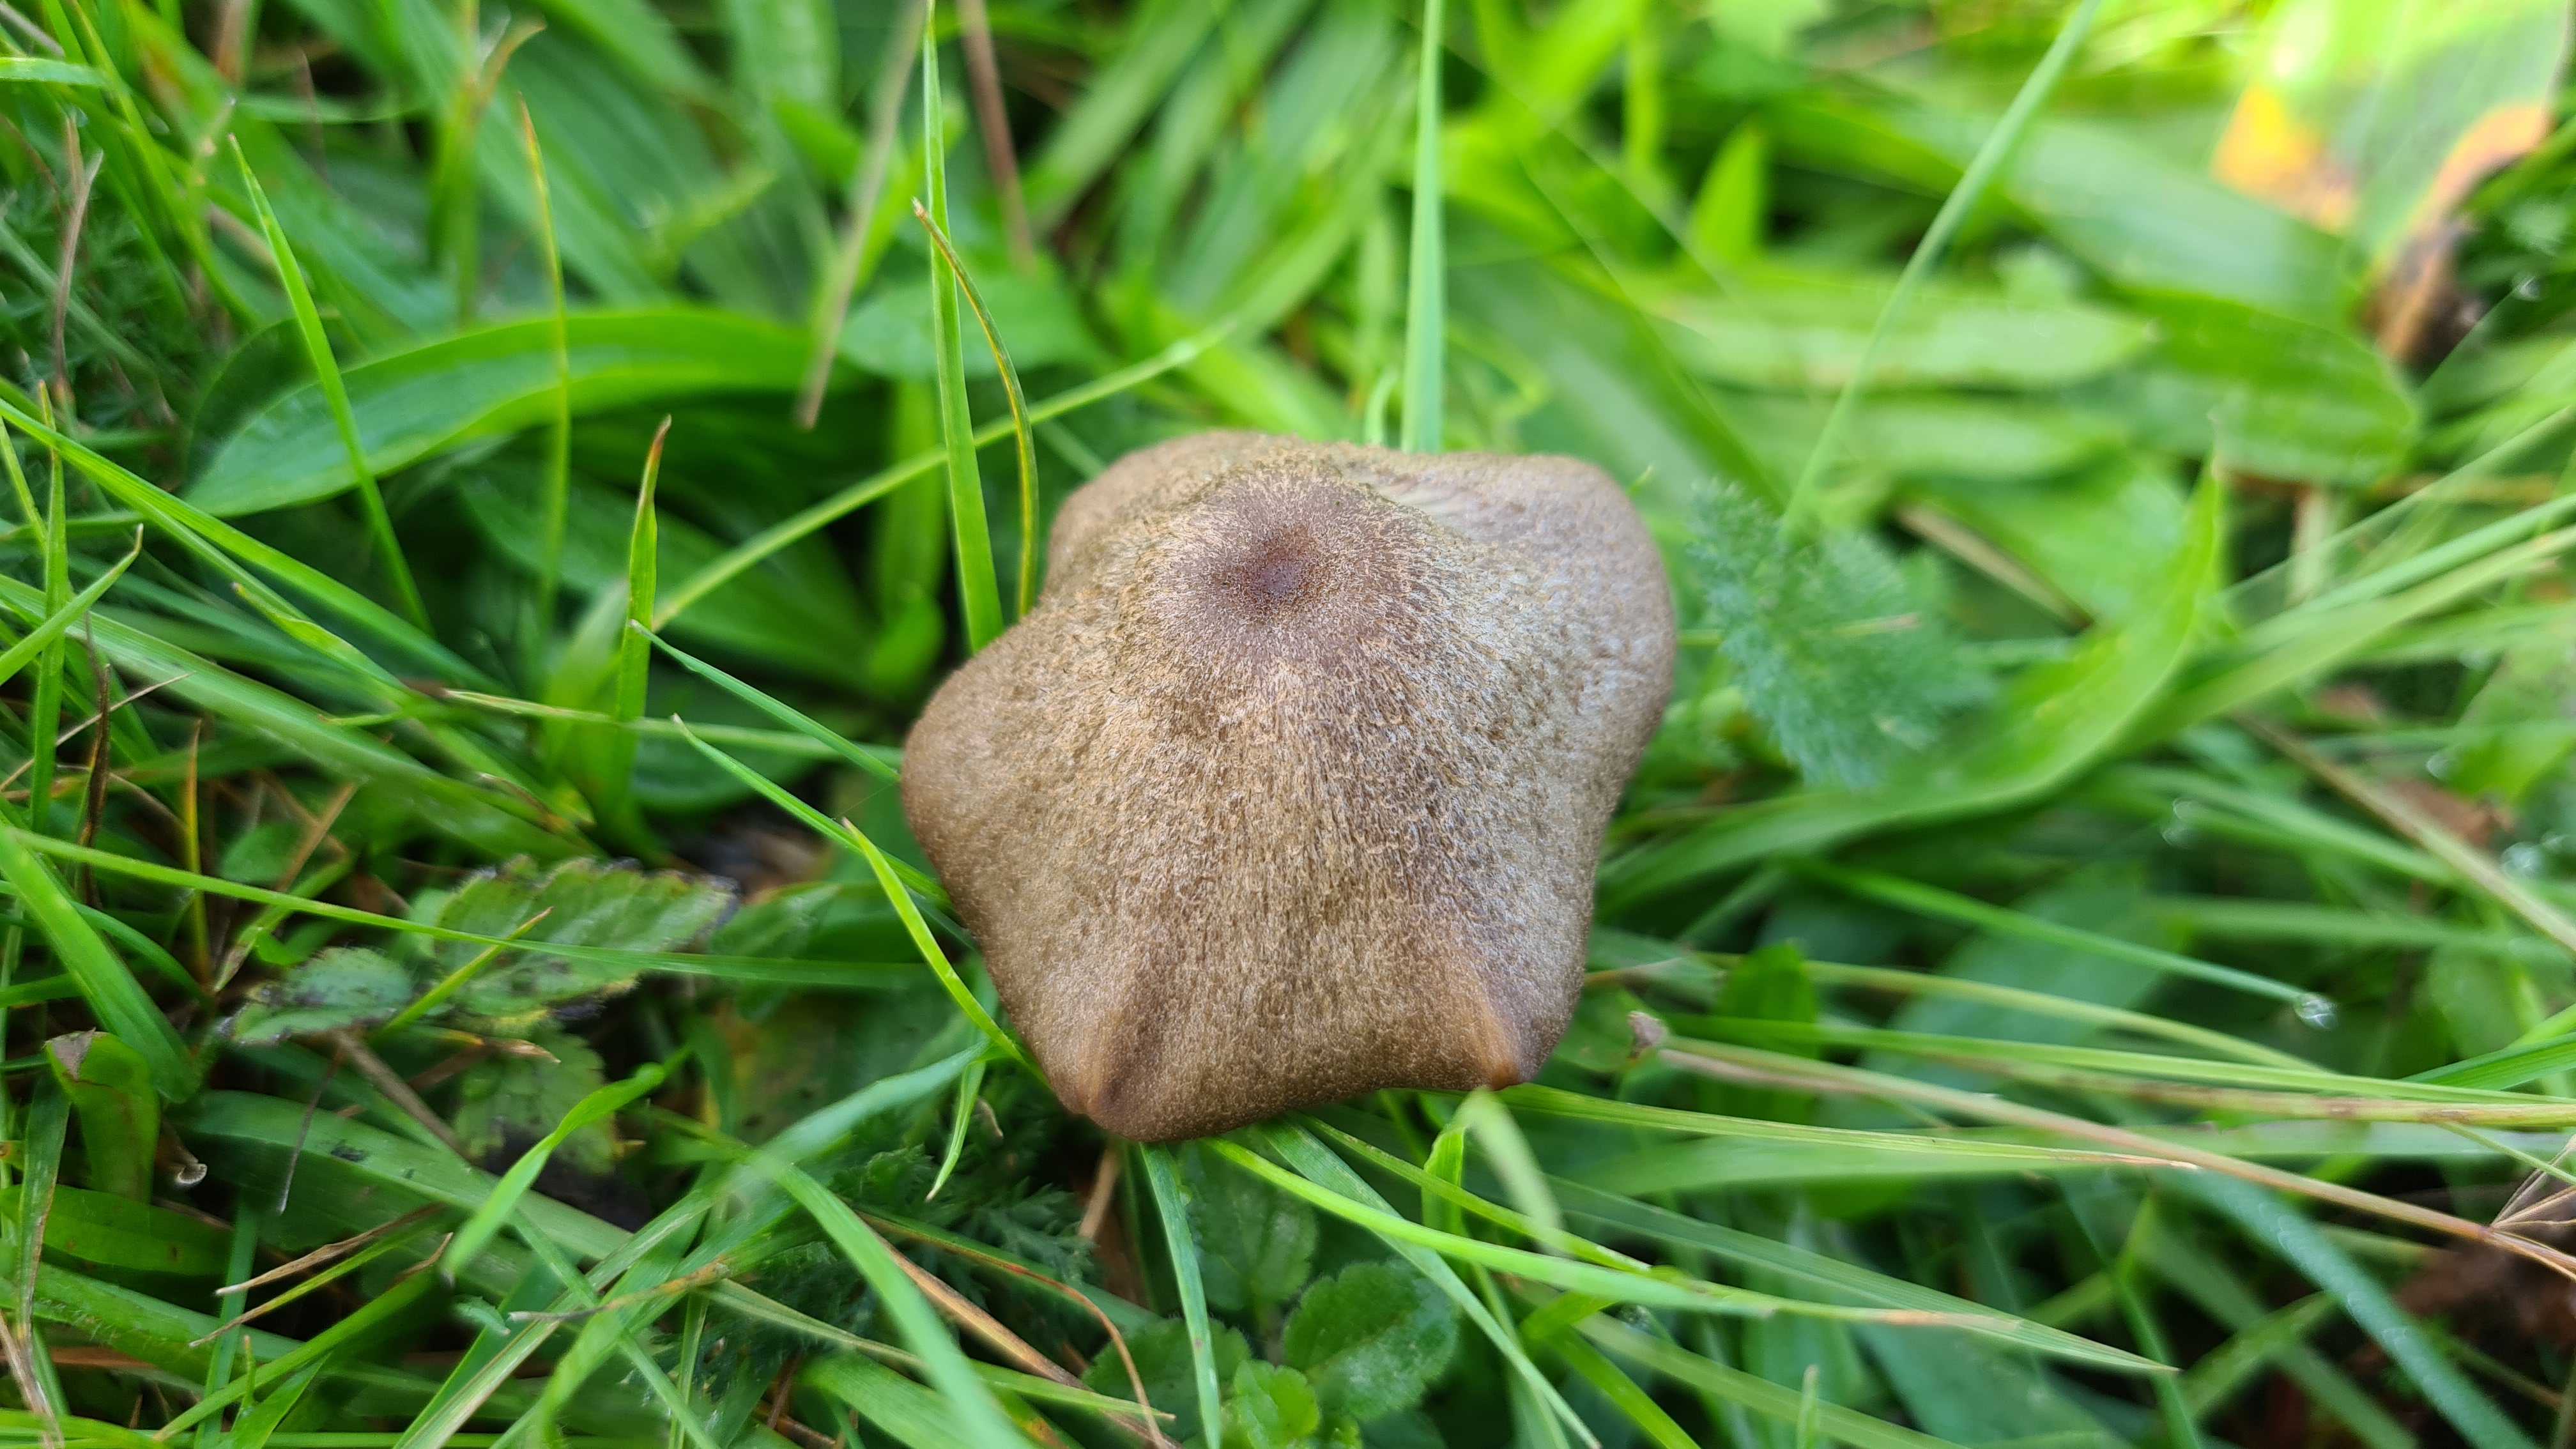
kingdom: Fungi
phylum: Basidiomycota
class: Agaricomycetes
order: Agaricales
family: Entolomataceae
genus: Entoloma
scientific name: Entoloma griseocyaneum
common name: gråblå rødblad
